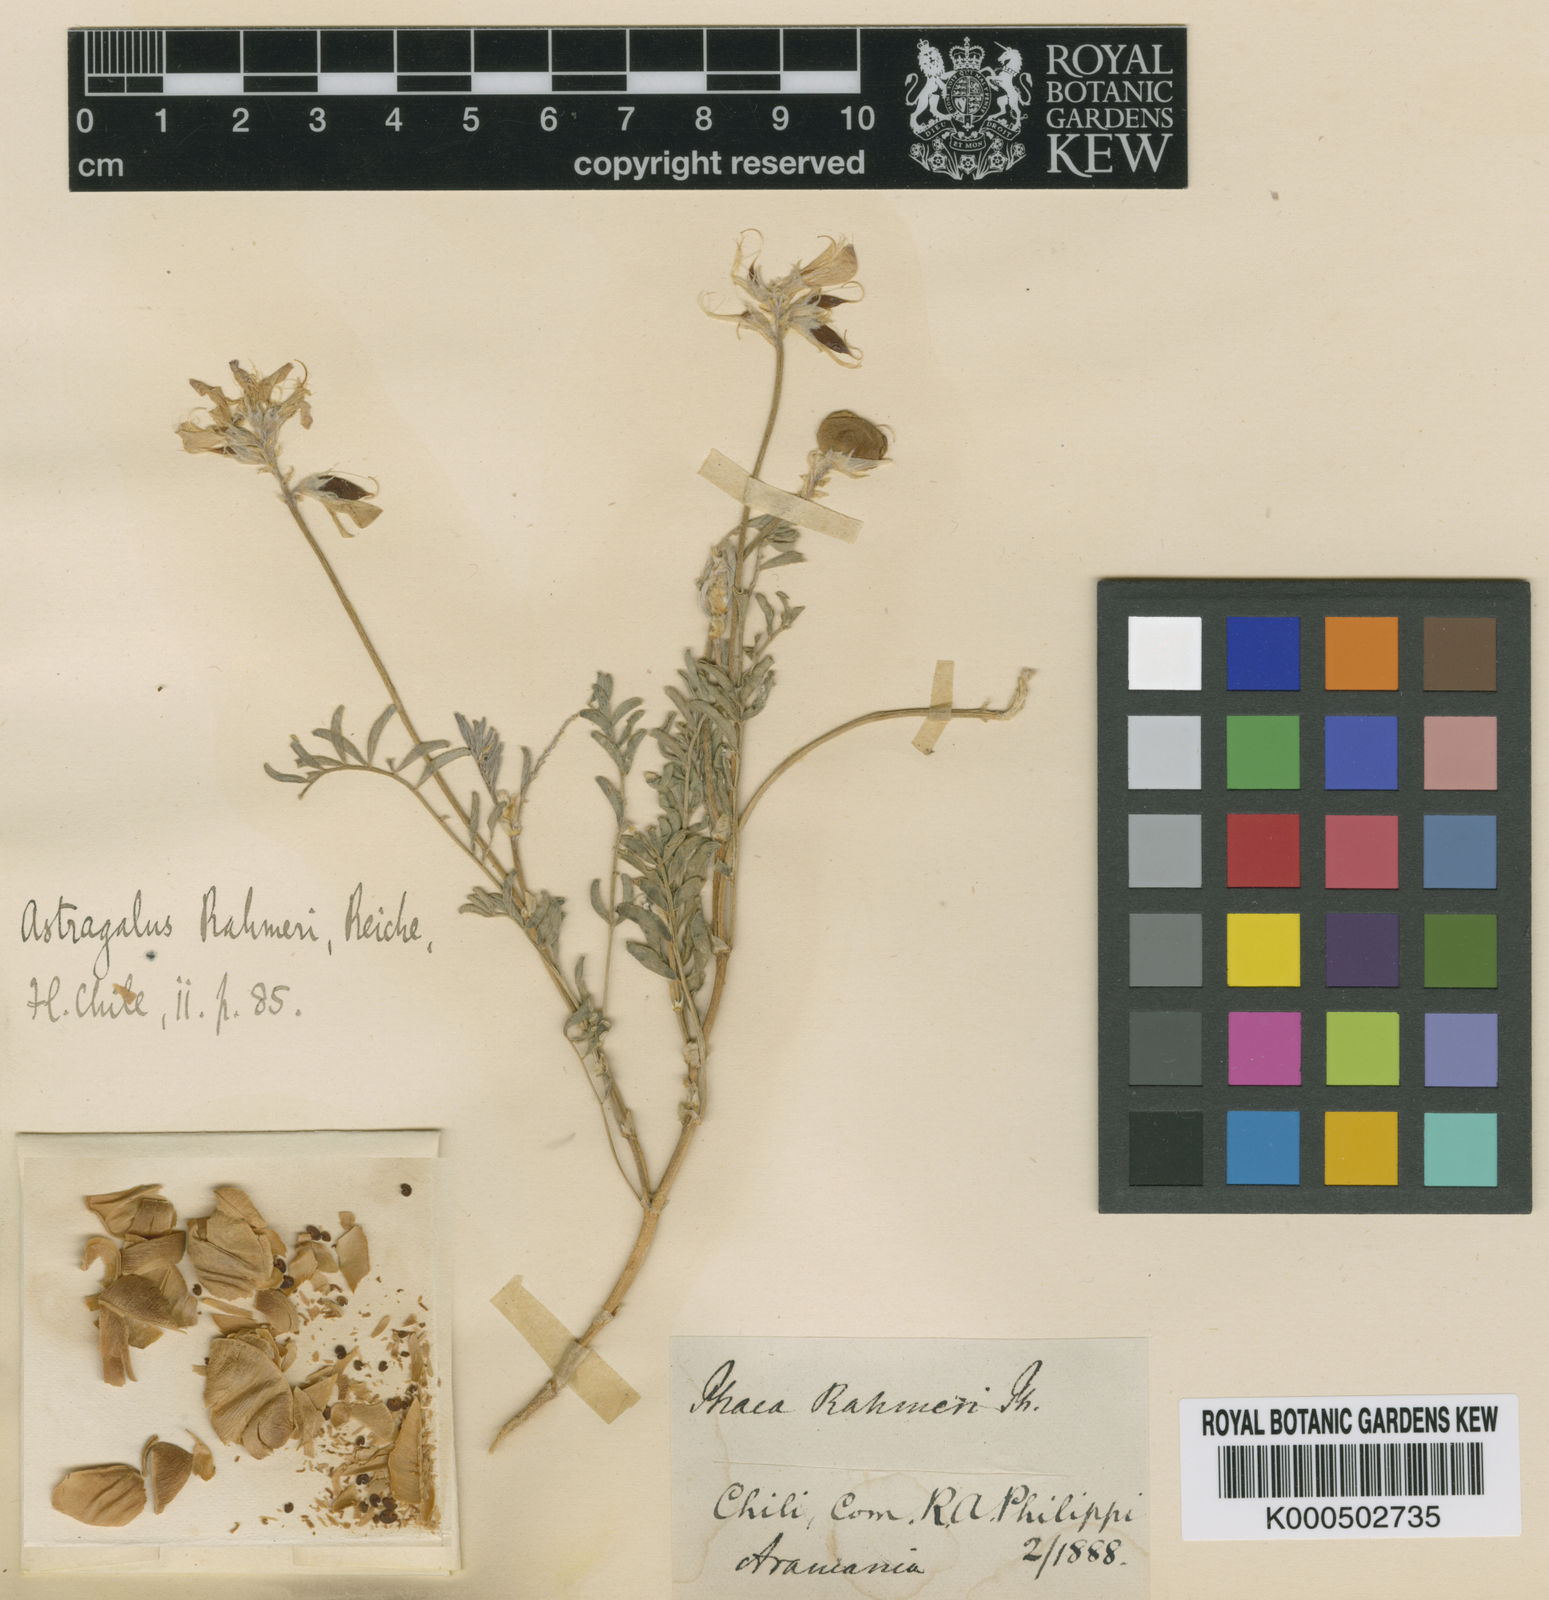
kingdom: Plantae
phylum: Tracheophyta
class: Magnoliopsida
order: Fabales
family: Fabaceae
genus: Astragalus
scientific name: Astragalus palenae
